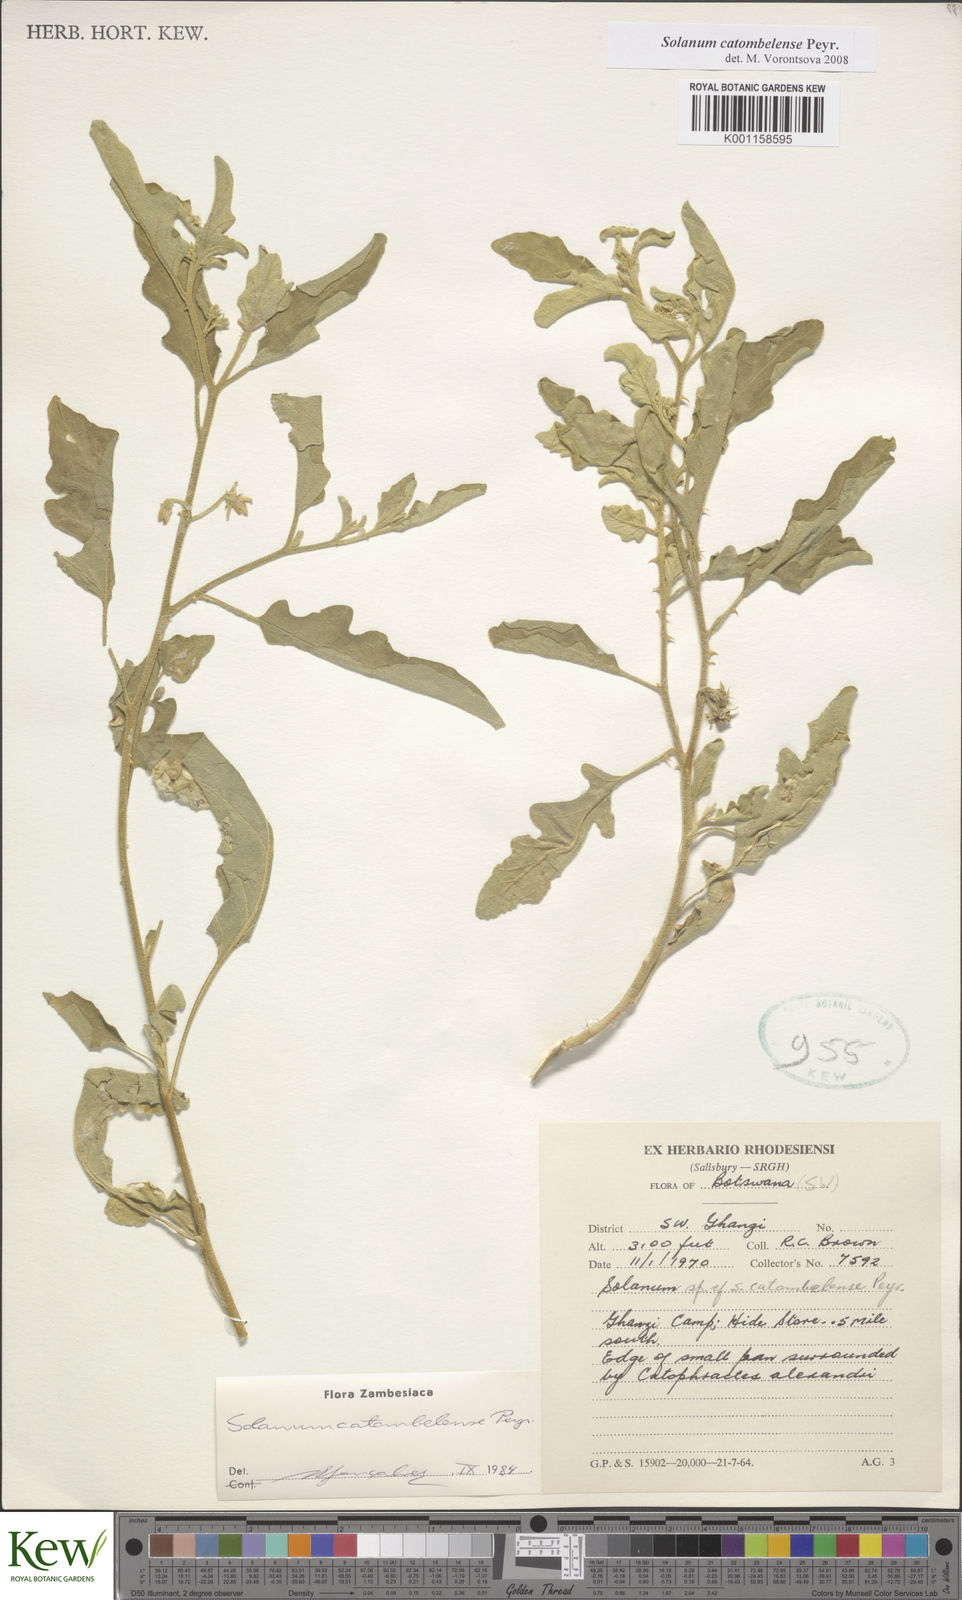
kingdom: Plantae
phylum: Tracheophyta
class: Magnoliopsida
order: Solanales
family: Solanaceae
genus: Solanum
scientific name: Solanum catombelense
